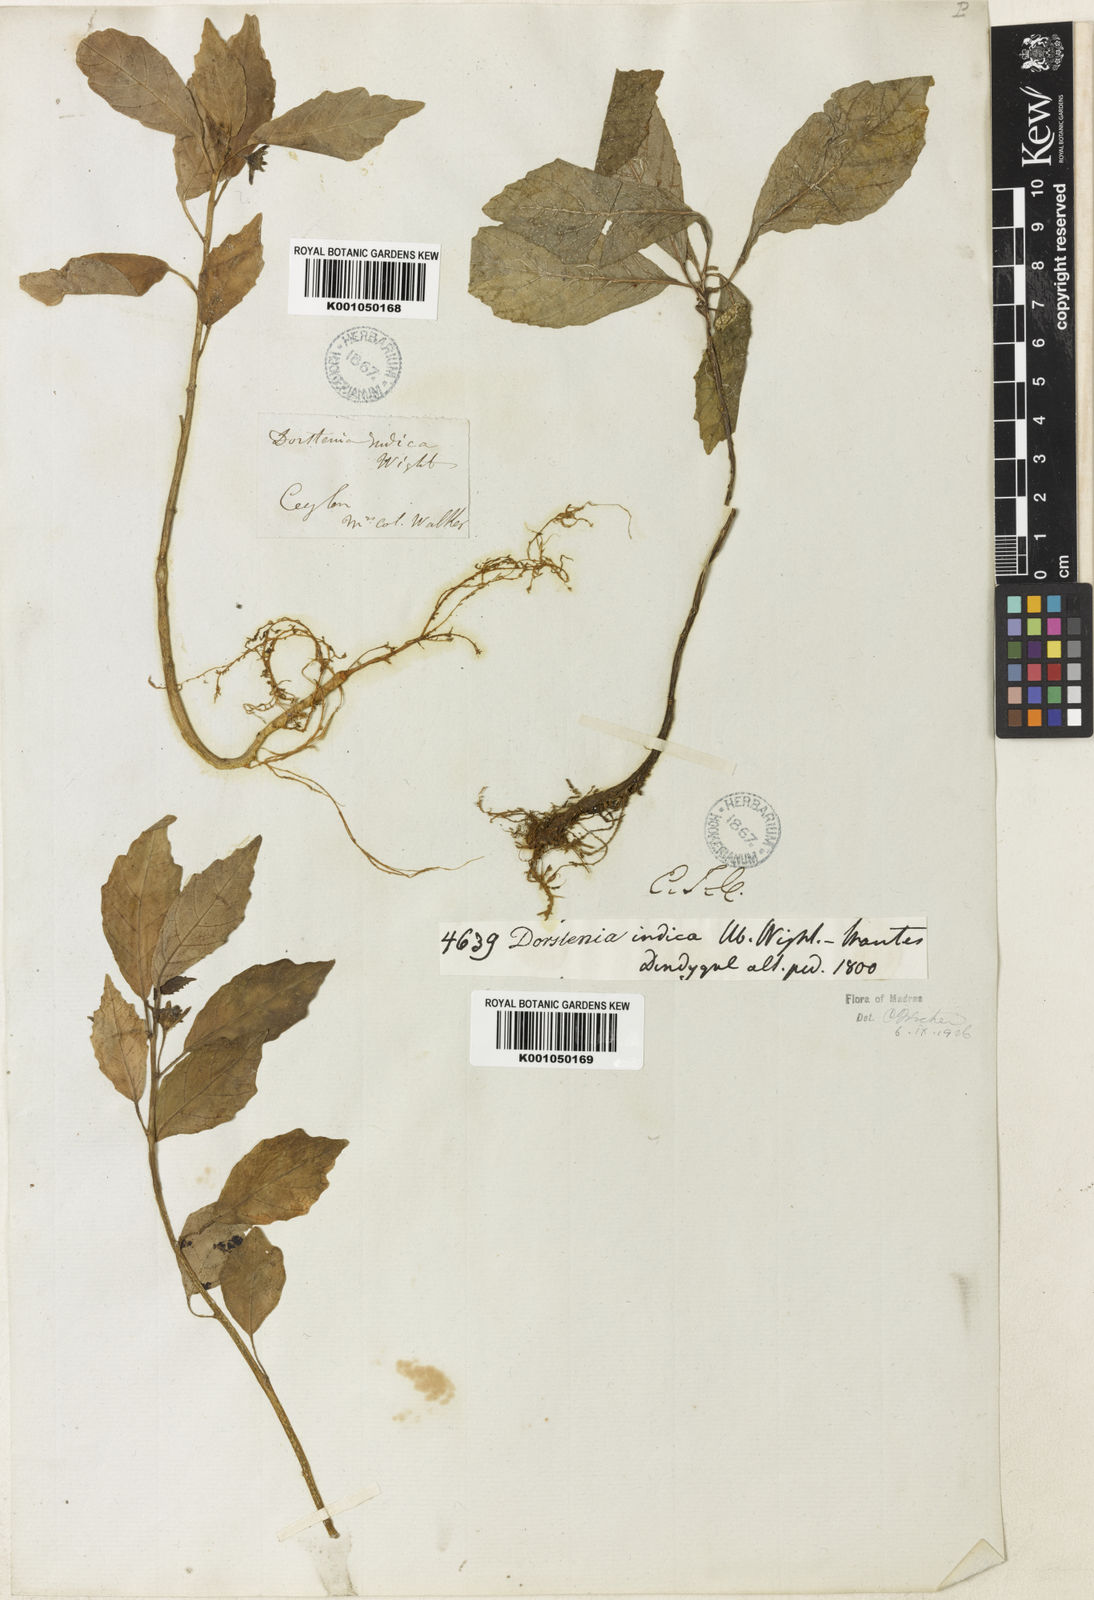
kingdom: Plantae
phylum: Tracheophyta
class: Magnoliopsida
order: Rosales
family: Moraceae
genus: Dorstenia
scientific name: Dorstenia indica
